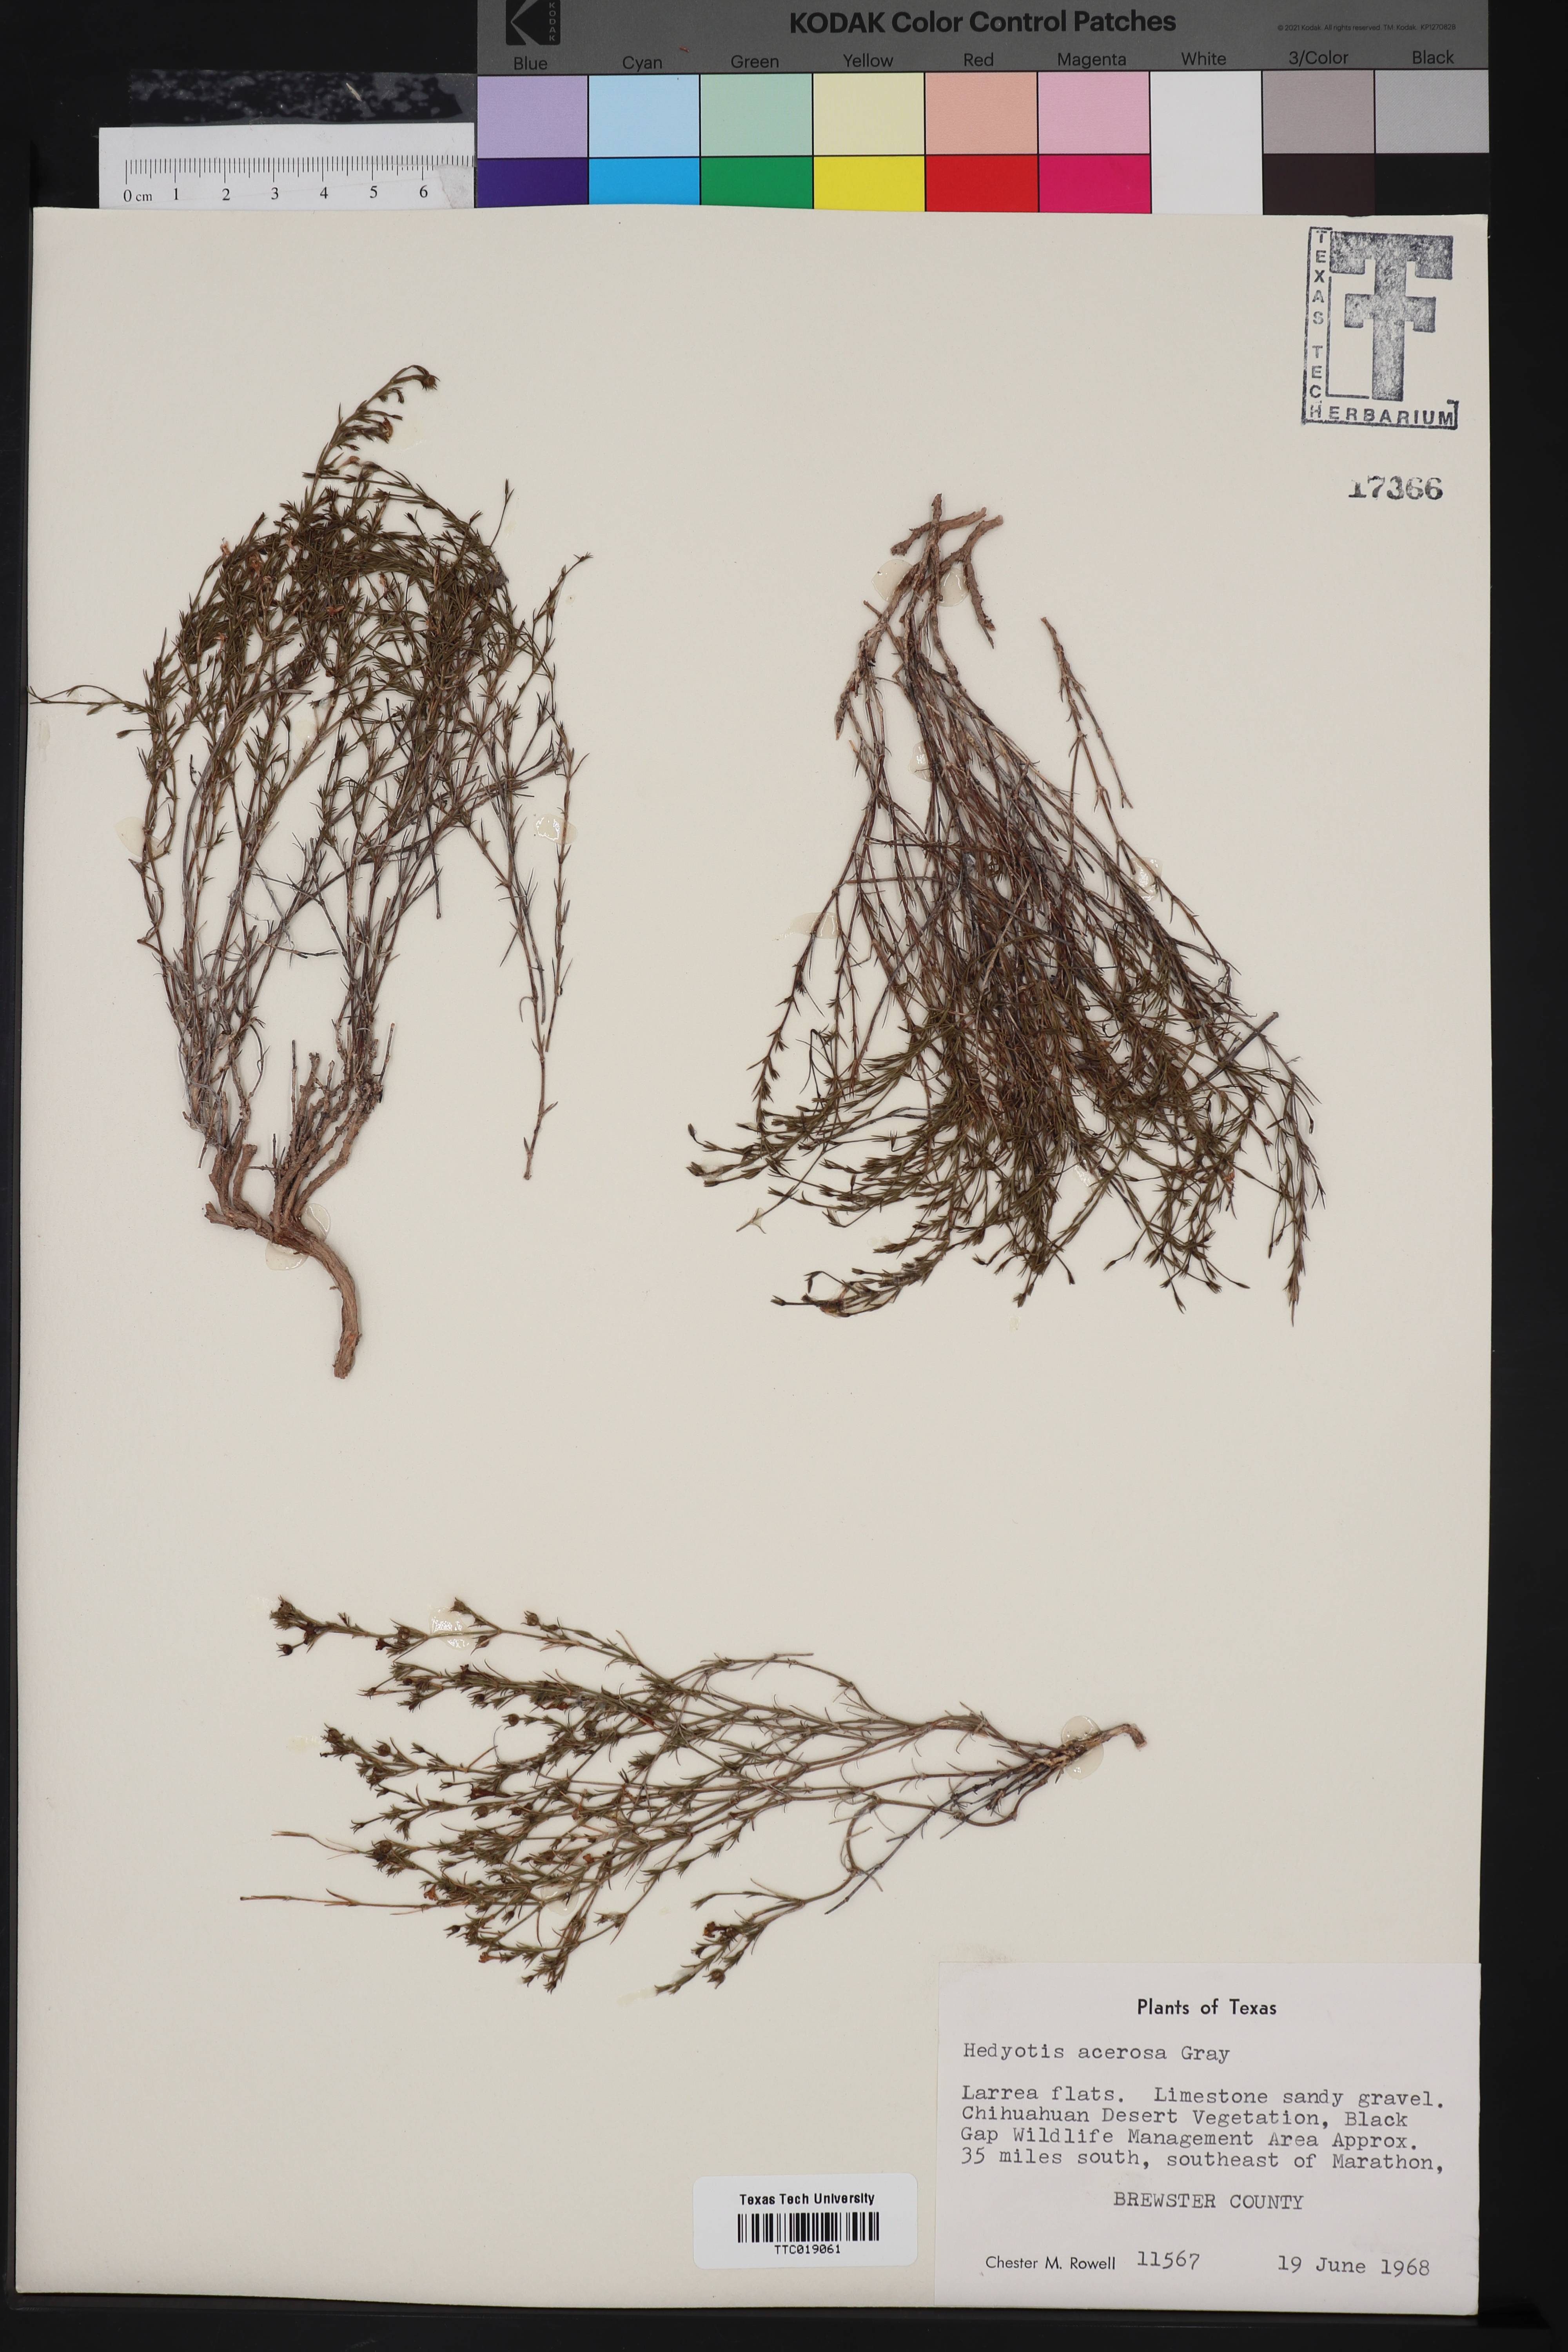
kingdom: Plantae
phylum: Tracheophyta
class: Magnoliopsida
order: Gentianales
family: Rubiaceae
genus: Houstonia
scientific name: Houstonia acerosa
